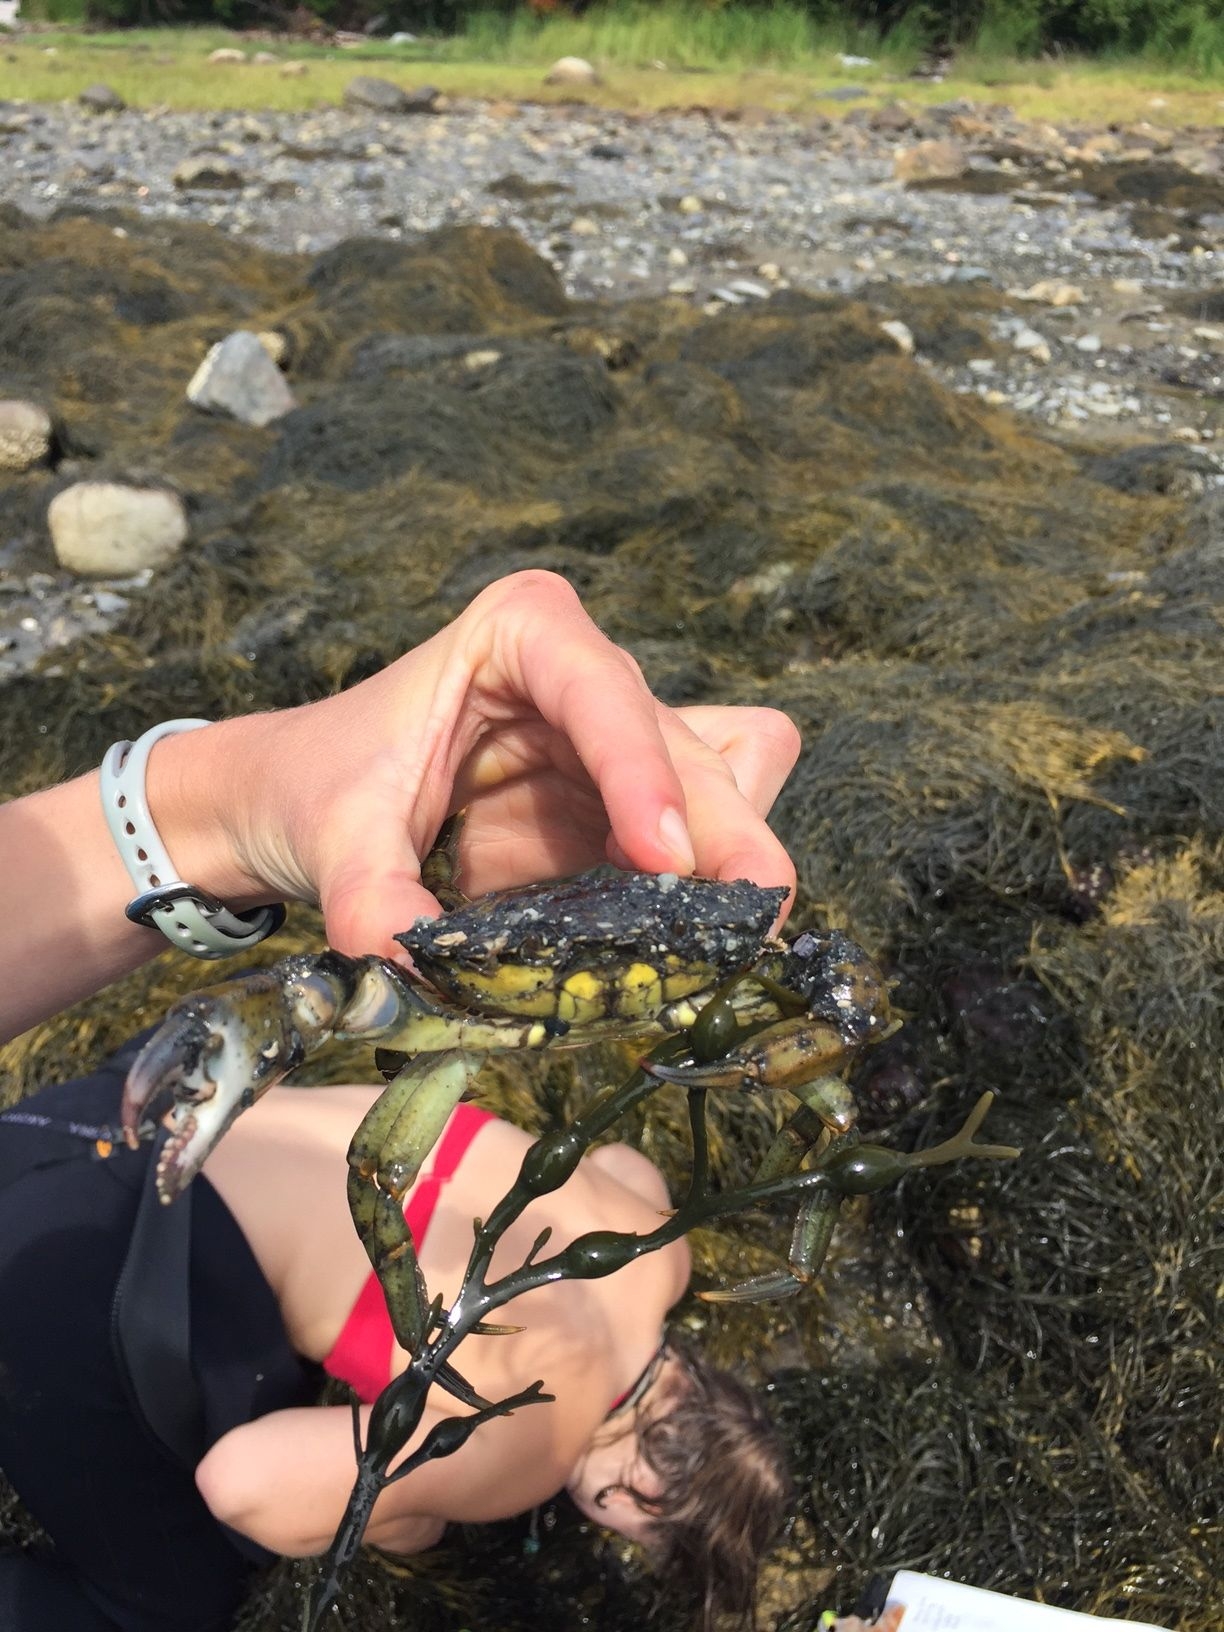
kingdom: Animalia
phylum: Arthropoda
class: Malacostraca
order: Decapoda
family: Carcinidae
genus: Carcinus
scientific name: Carcinus maenas
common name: NA
